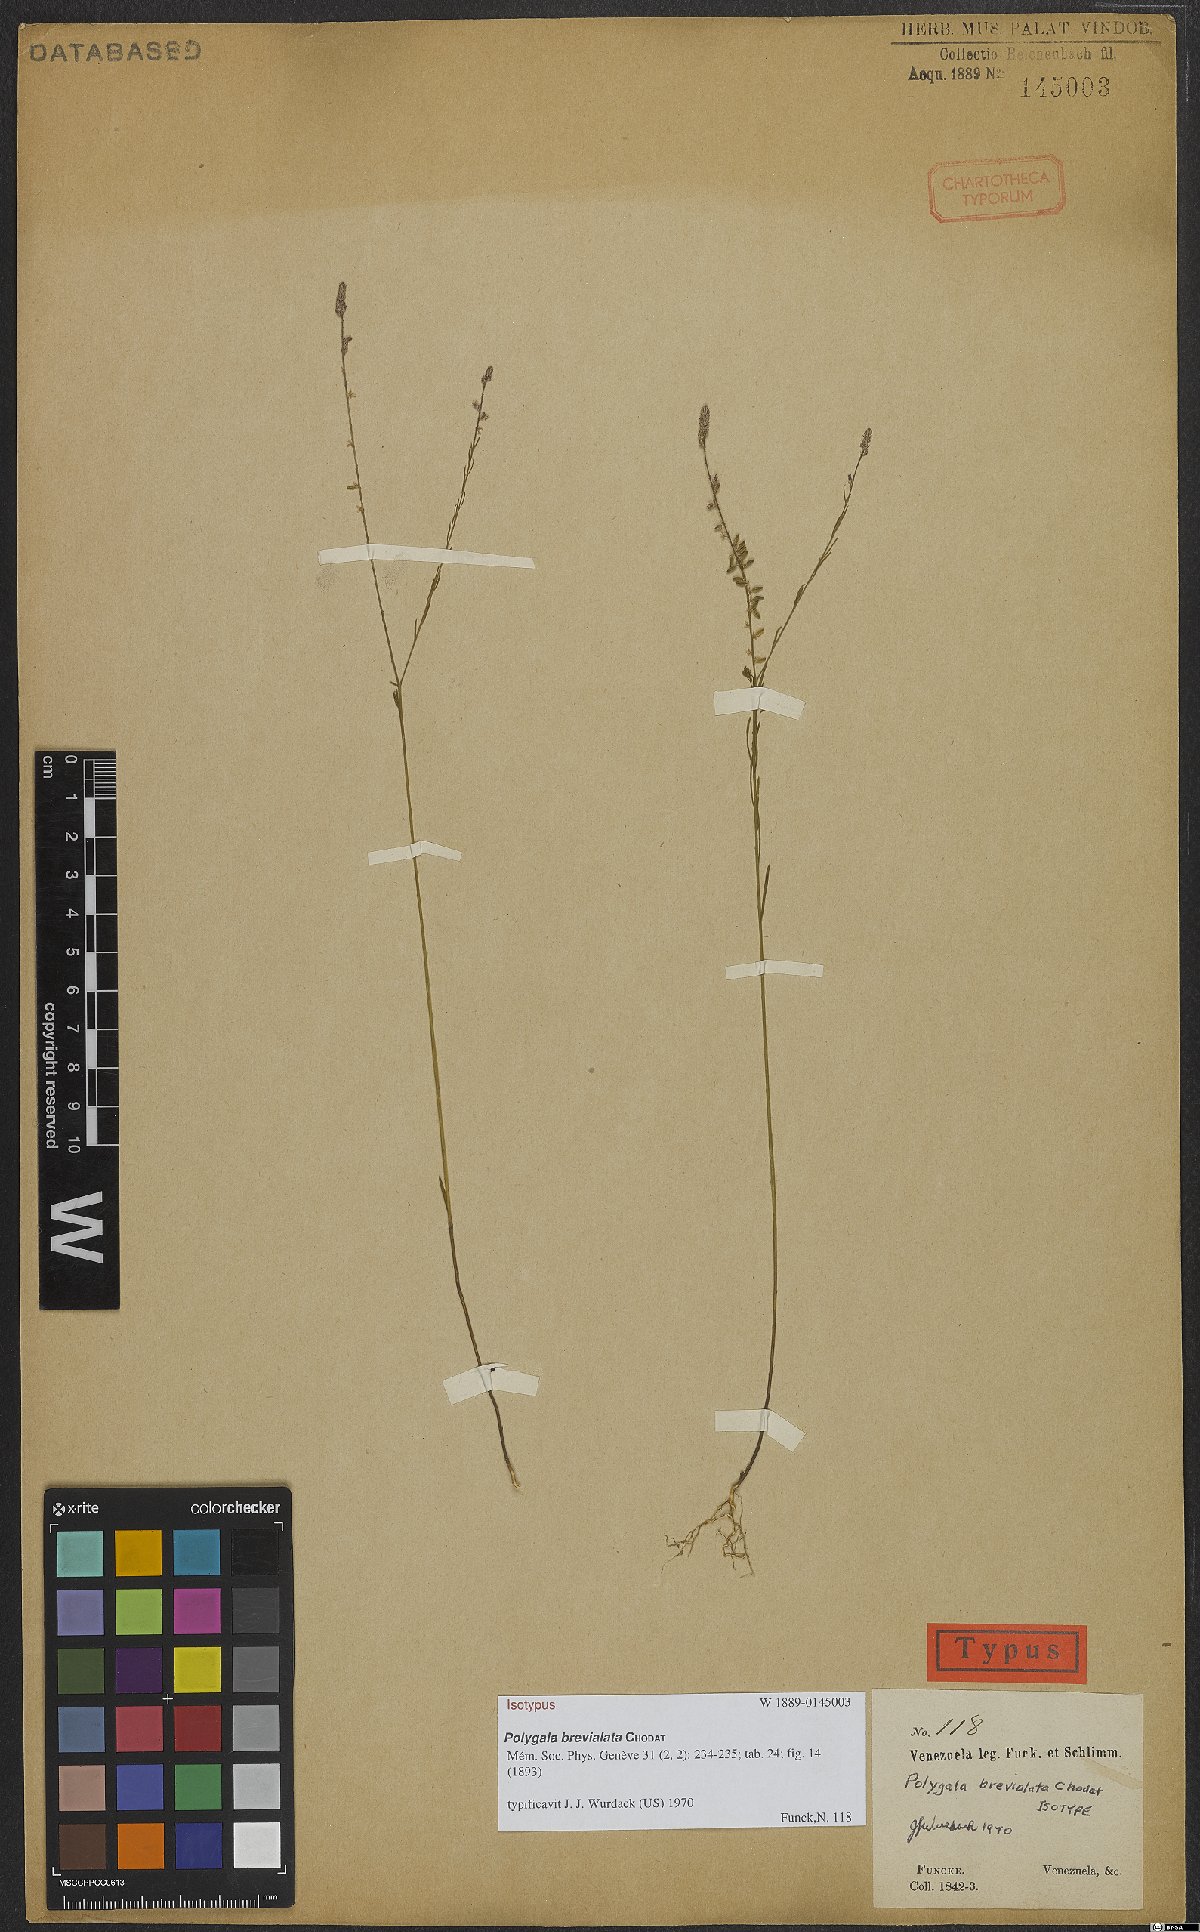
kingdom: Plantae
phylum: Tracheophyta
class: Magnoliopsida
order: Fabales
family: Polygalaceae
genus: Polygala
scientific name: Polygala brevialata
